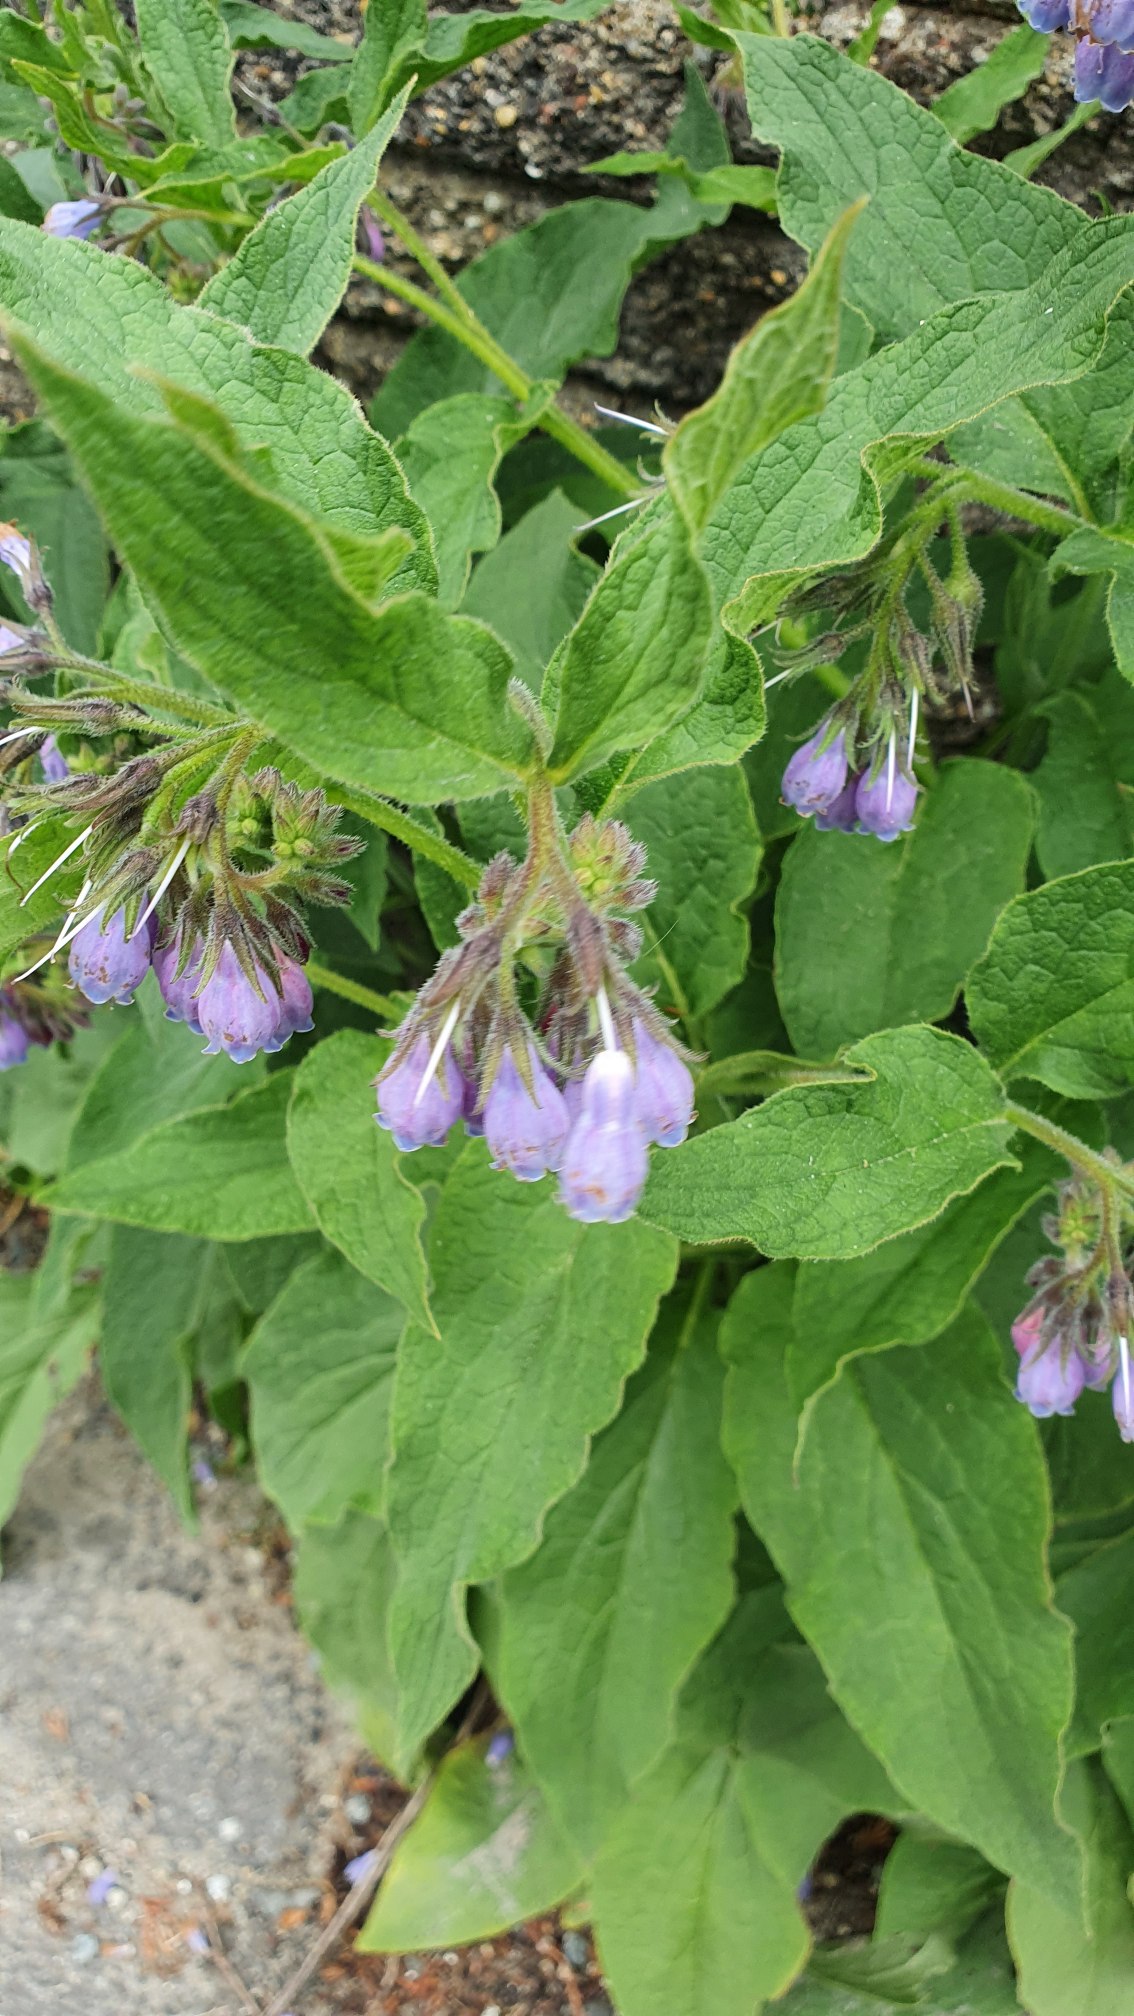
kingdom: Plantae
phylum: Tracheophyta
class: Magnoliopsida
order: Boraginales
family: Boraginaceae
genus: Symphytum
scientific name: Symphytum uplandicum
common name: Foder-kulsukker
